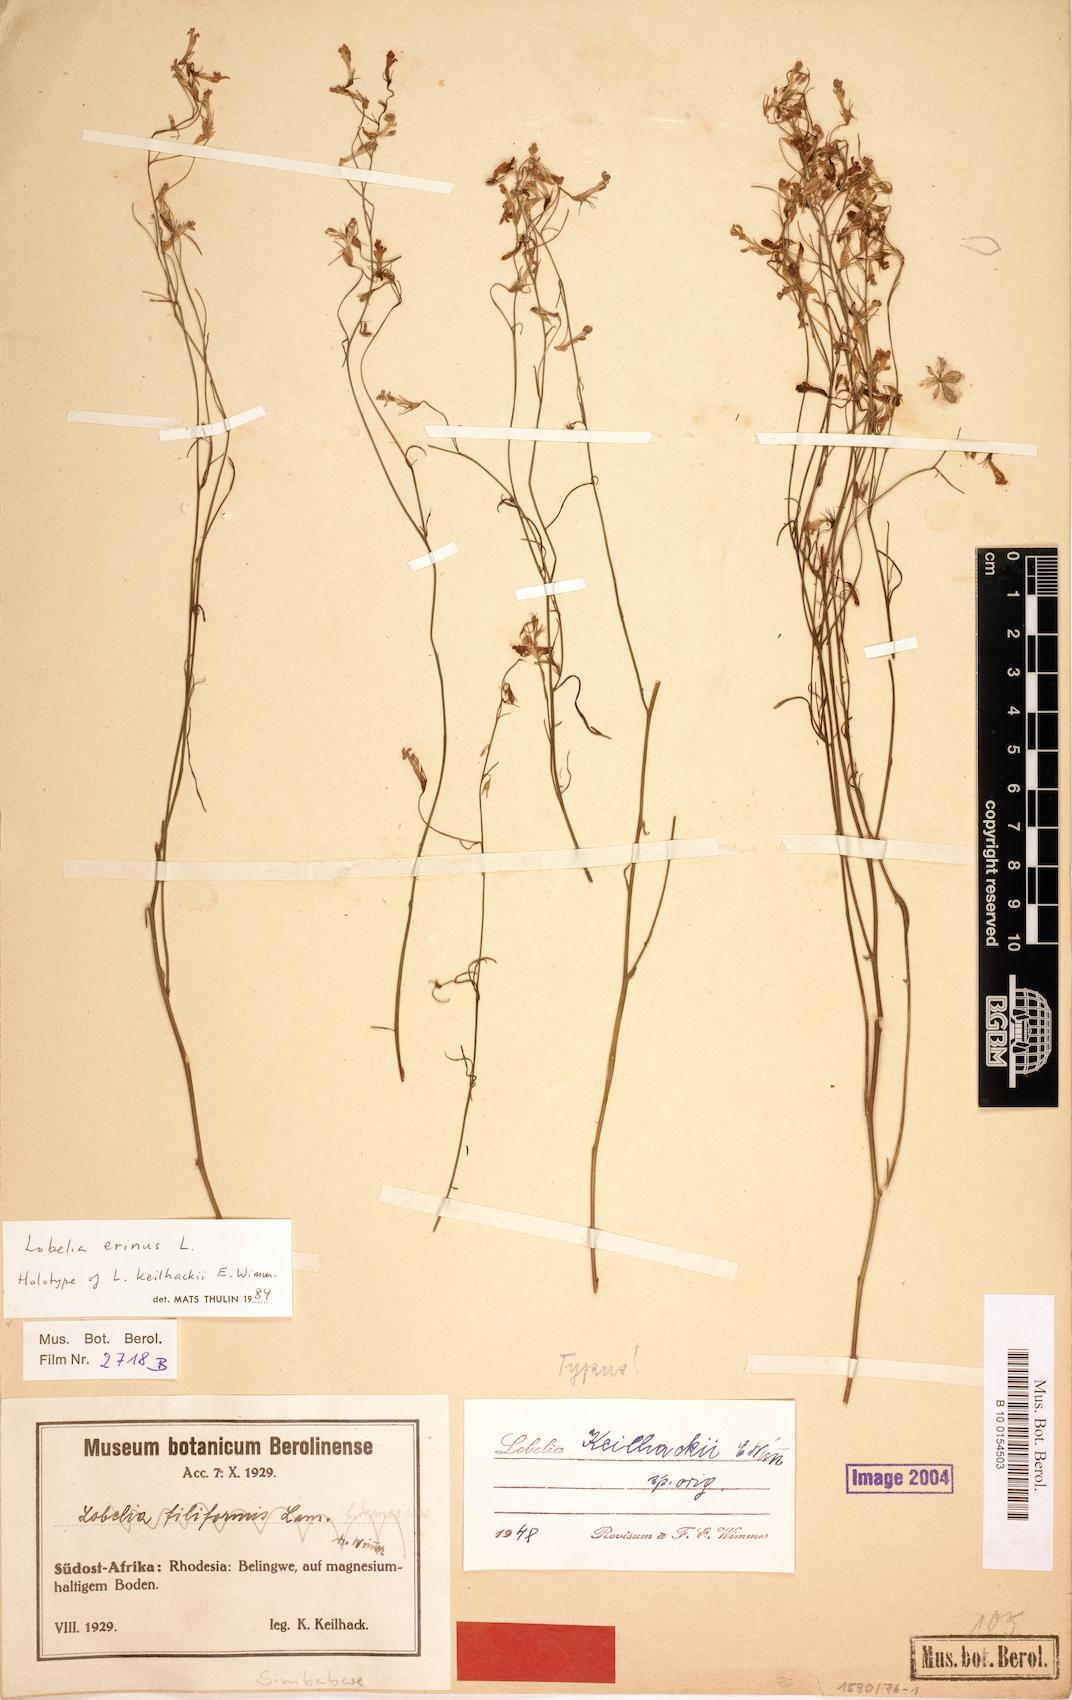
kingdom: Plantae
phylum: Tracheophyta
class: Magnoliopsida
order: Asterales
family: Campanulaceae
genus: Lobelia
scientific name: Lobelia erinus
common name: Edging lobelia
